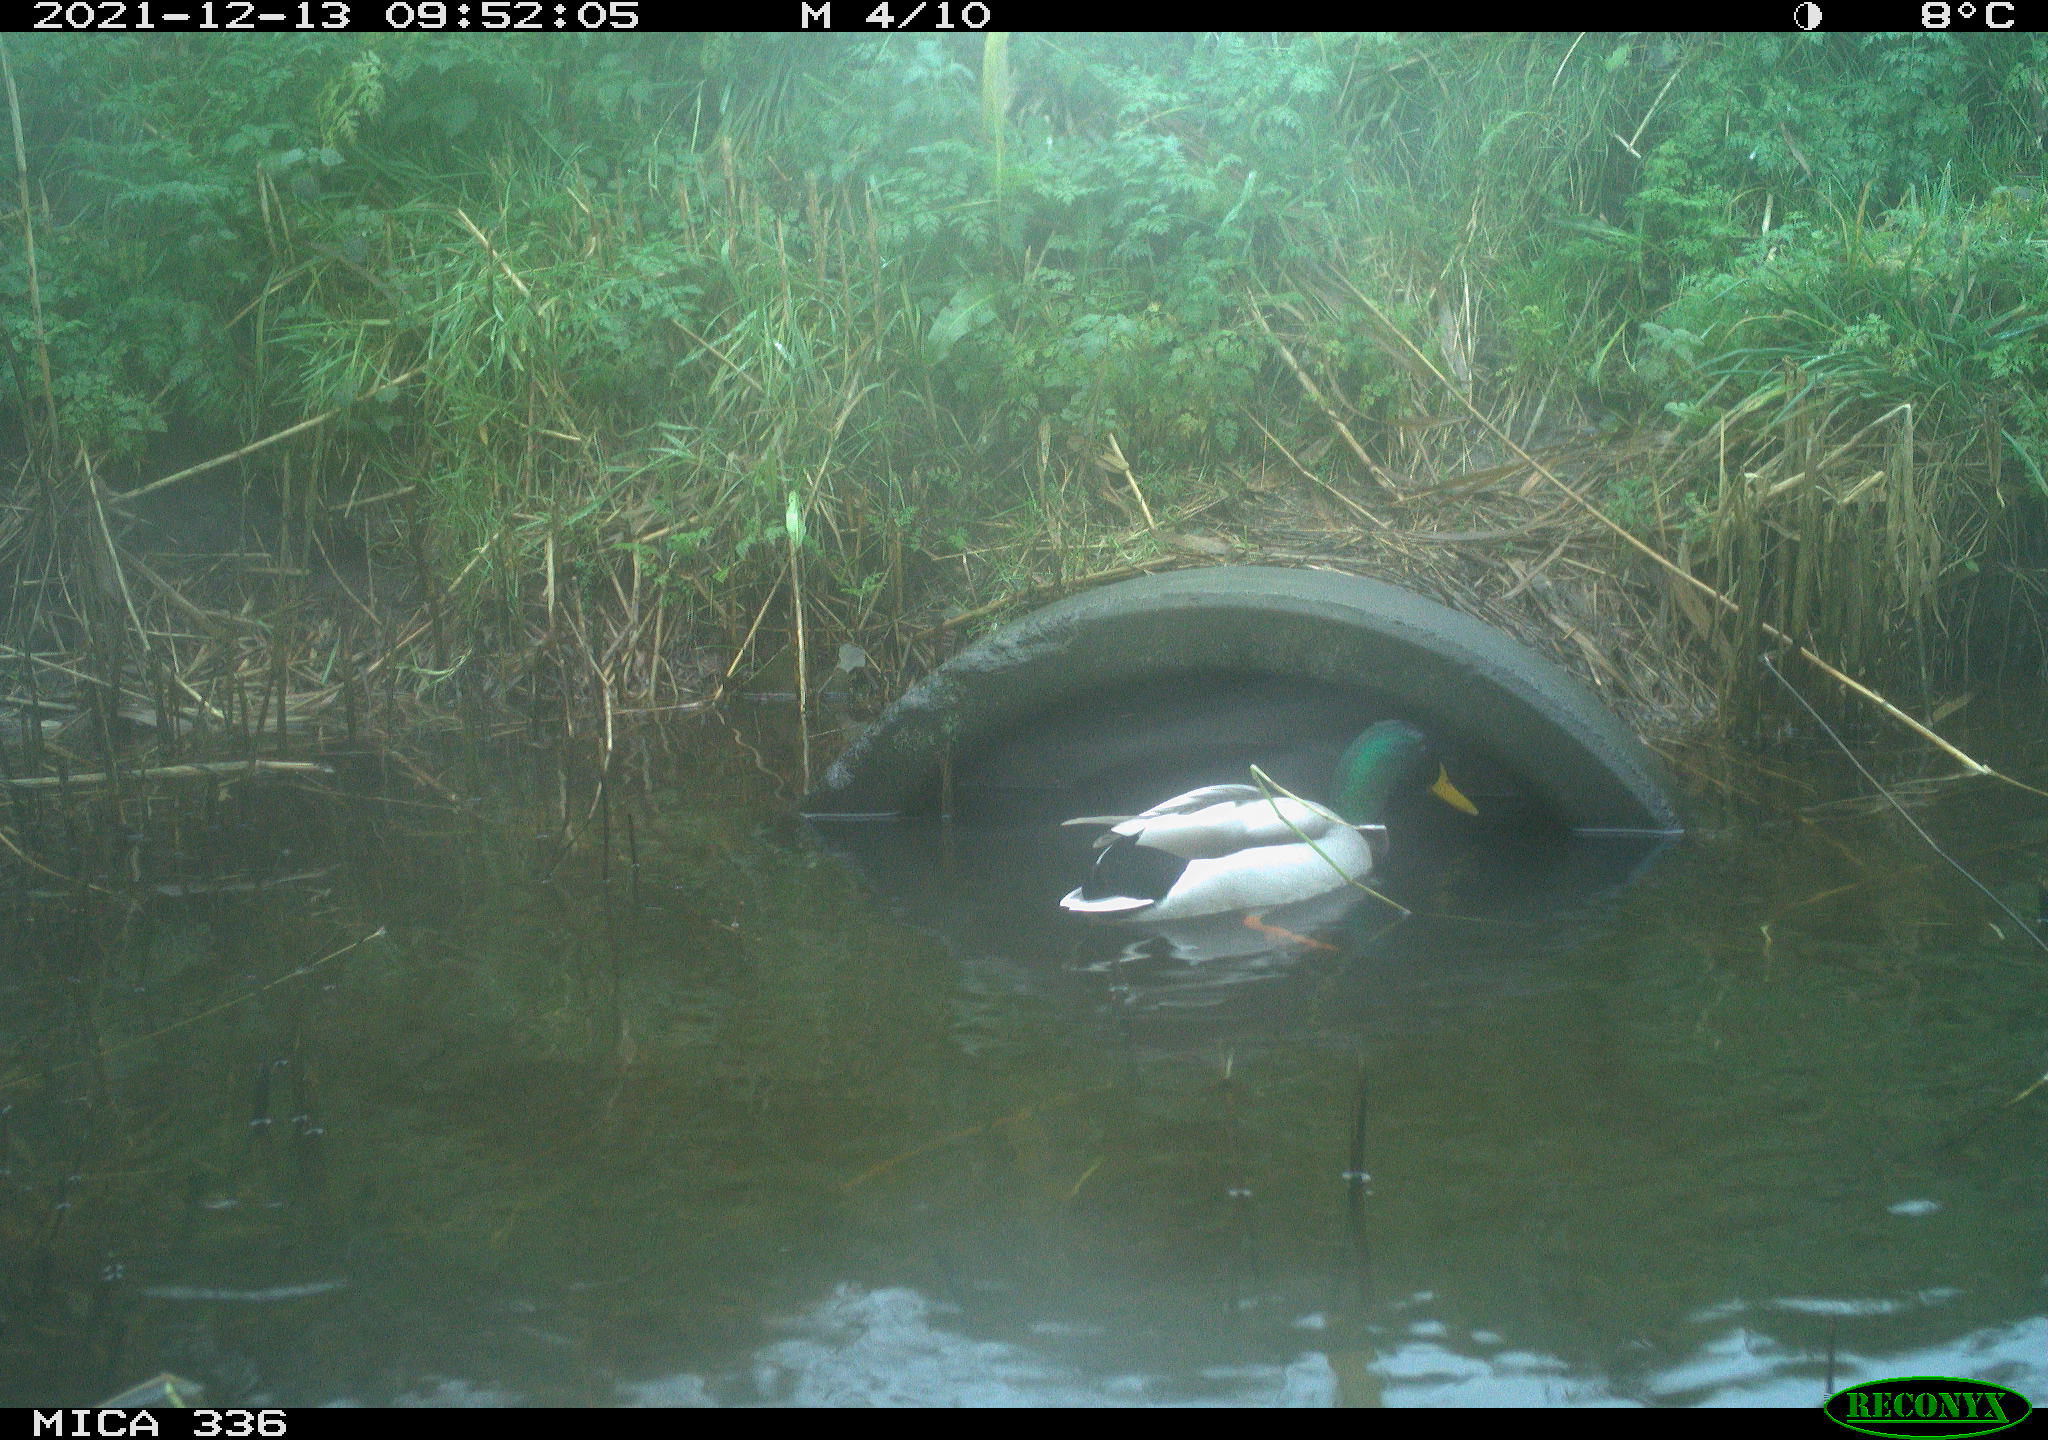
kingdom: Animalia
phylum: Chordata
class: Aves
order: Anseriformes
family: Anatidae
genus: Anas
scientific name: Anas platyrhynchos
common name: Mallard
